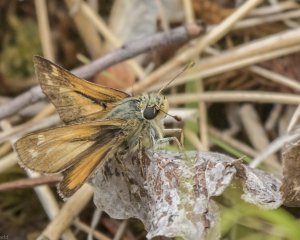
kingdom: Animalia
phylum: Arthropoda
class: Insecta
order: Lepidoptera
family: Hesperiidae
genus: Polites
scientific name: Polites
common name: Long Dash Skipper
